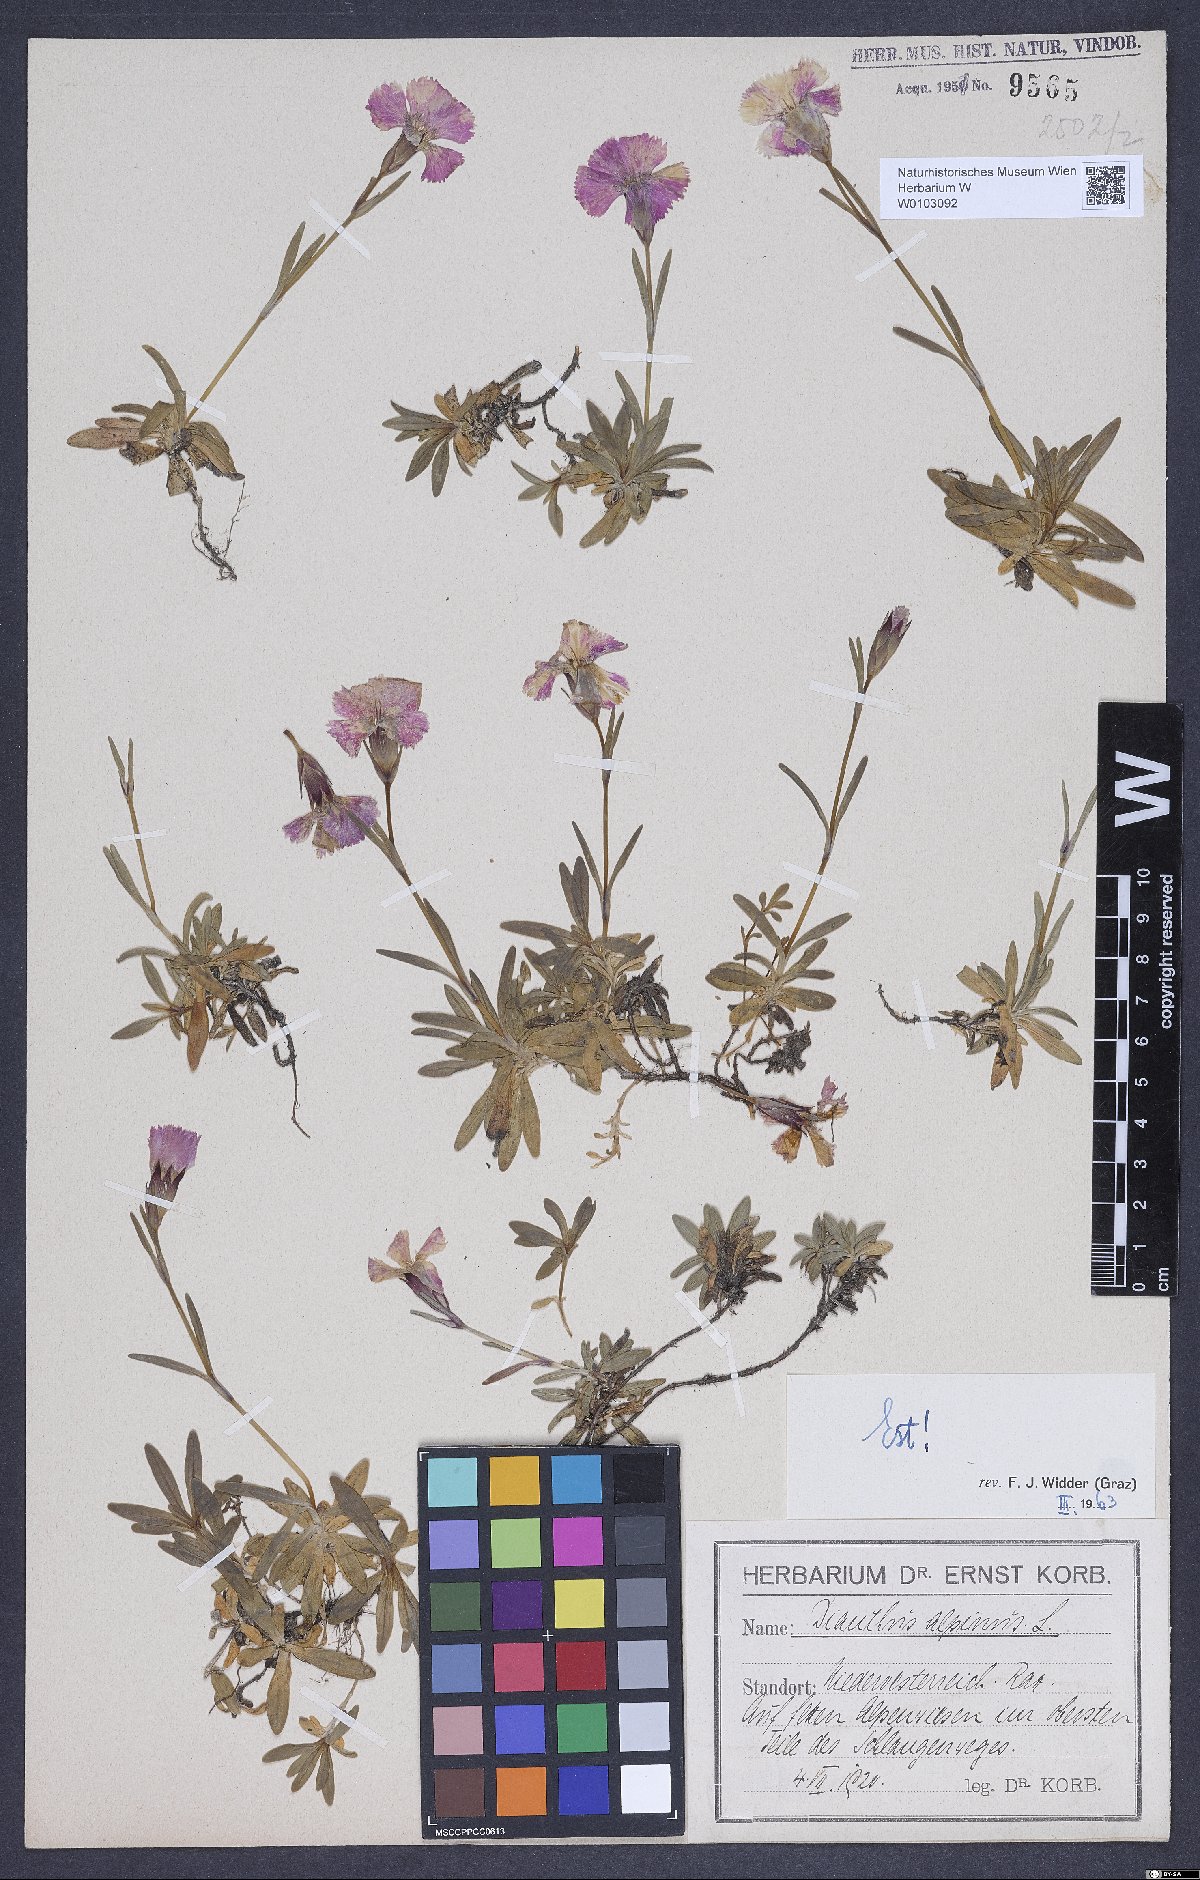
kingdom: Plantae
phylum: Tracheophyta
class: Magnoliopsida
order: Caryophyllales
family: Caryophyllaceae
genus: Dianthus
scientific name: Dianthus alpinus
